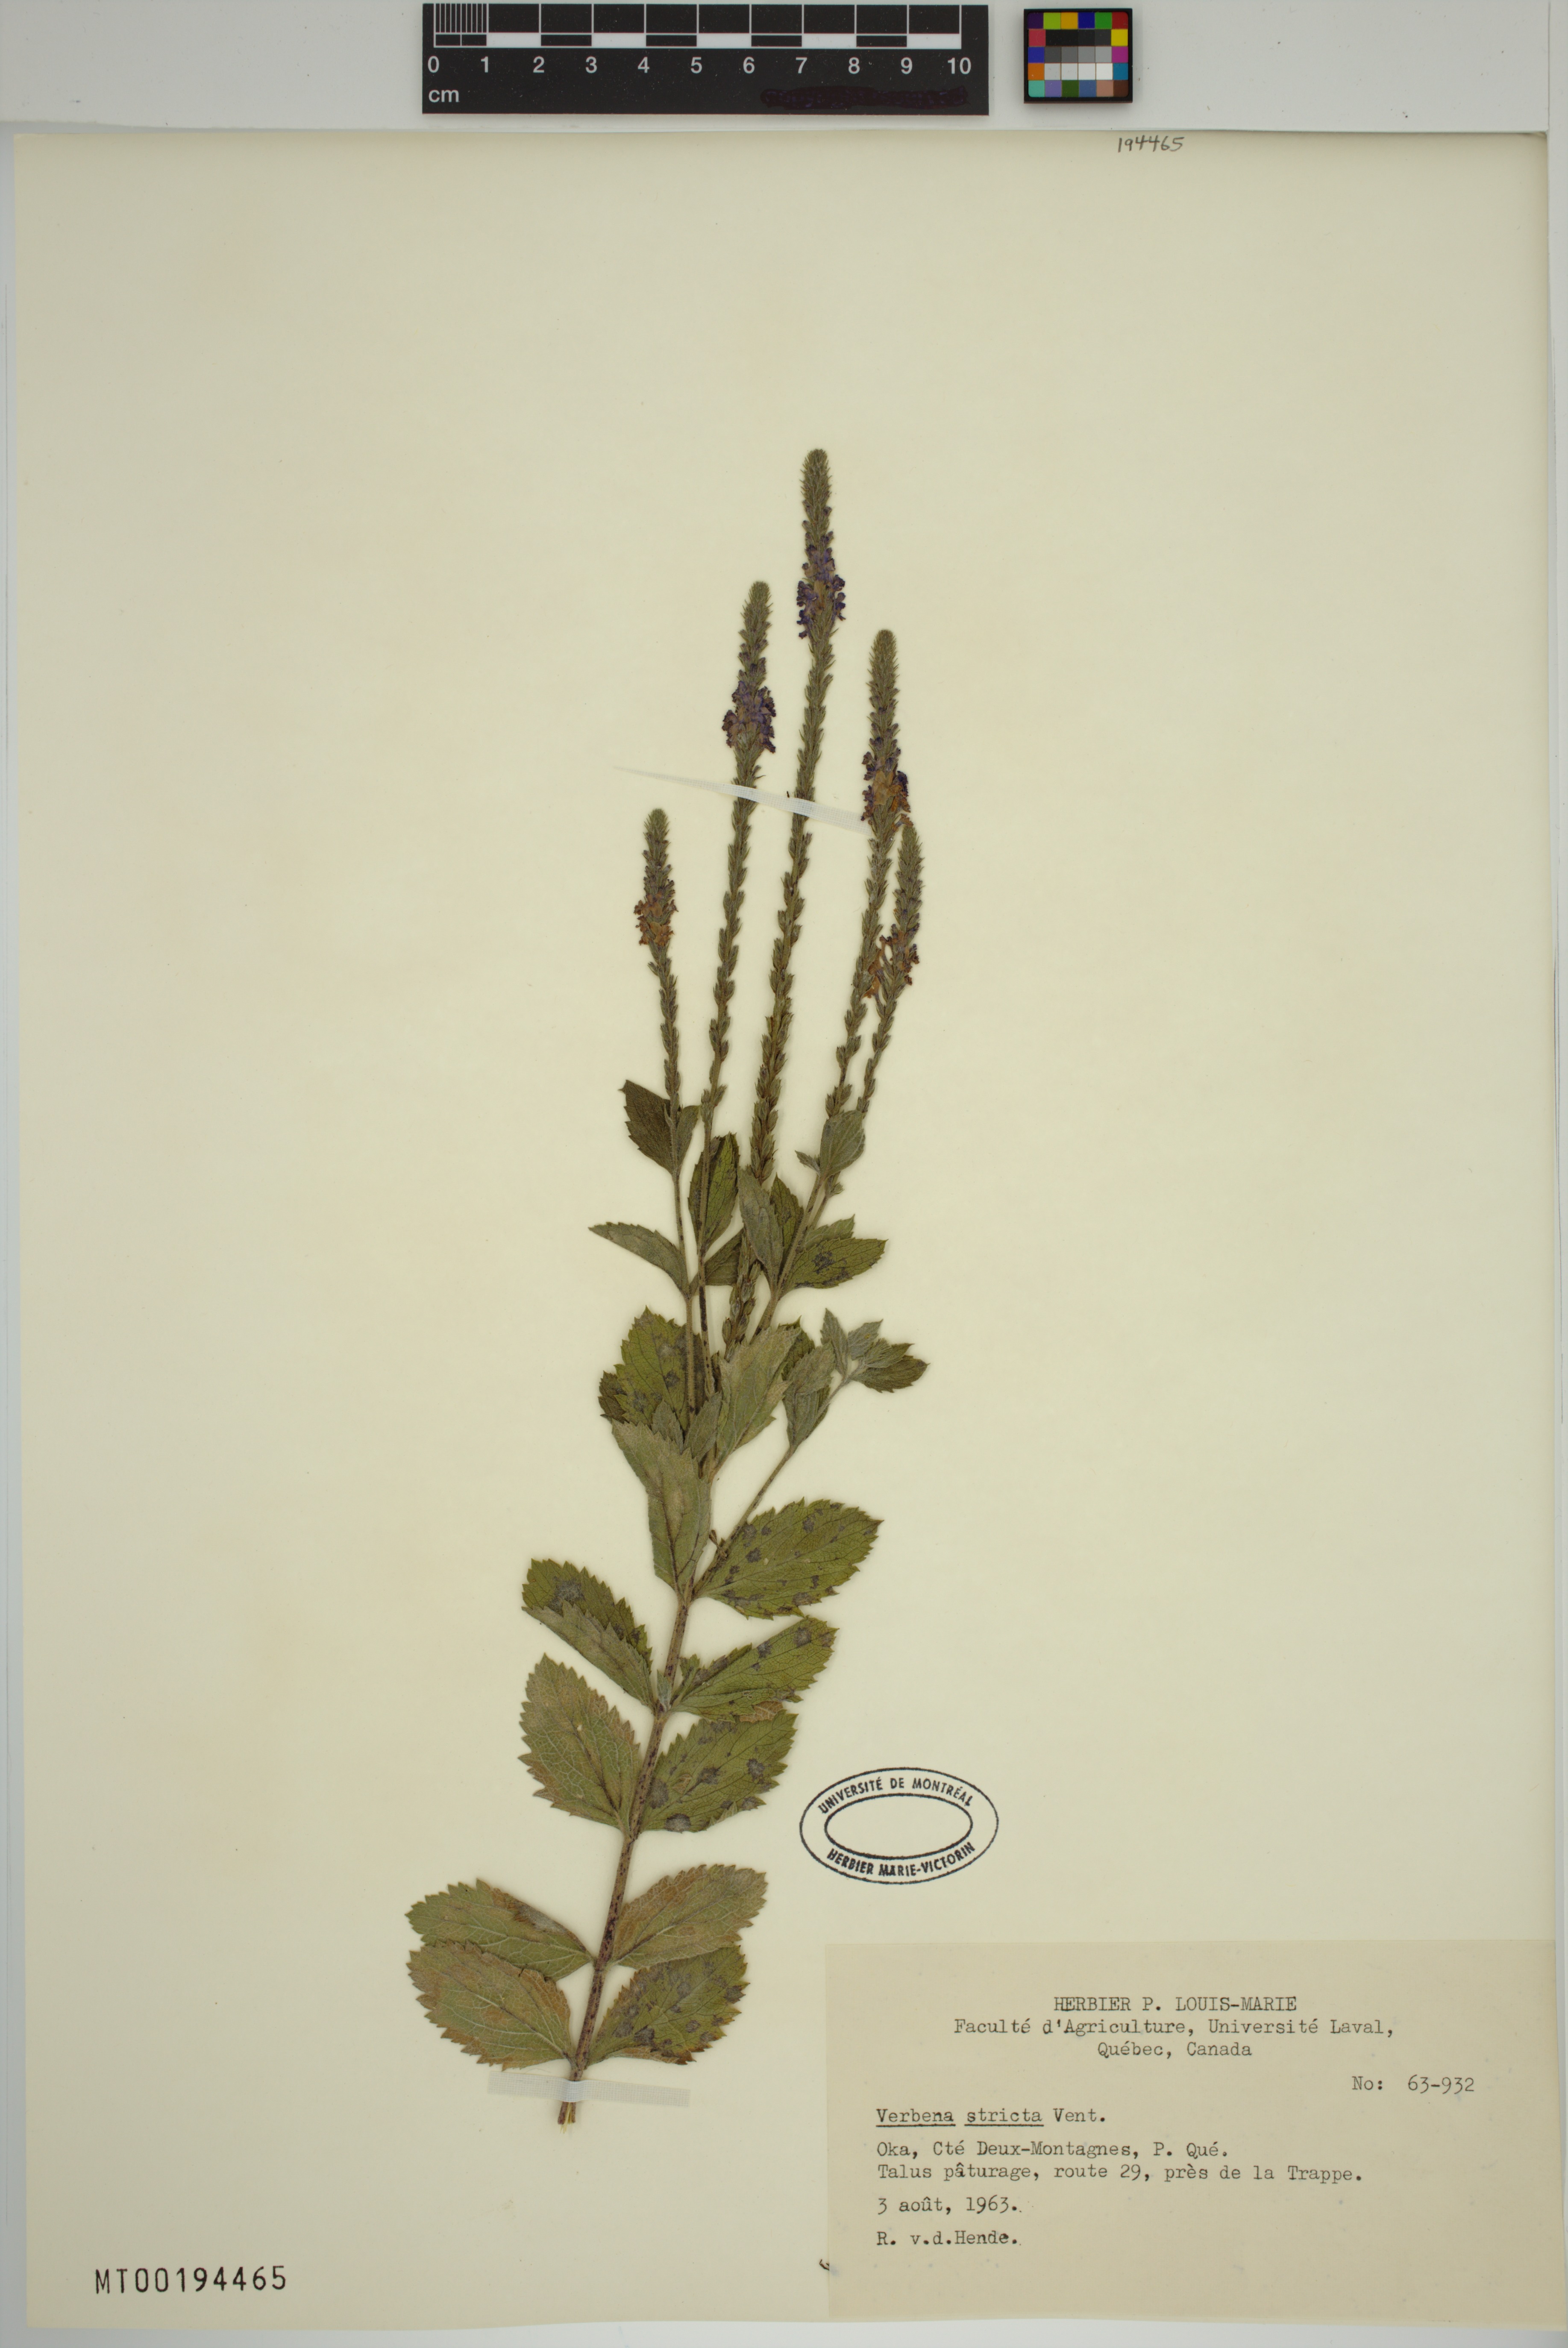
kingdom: Plantae
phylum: Tracheophyta
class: Magnoliopsida
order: Lamiales
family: Verbenaceae
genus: Verbena
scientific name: Verbena stricta
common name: Hoary vervain
